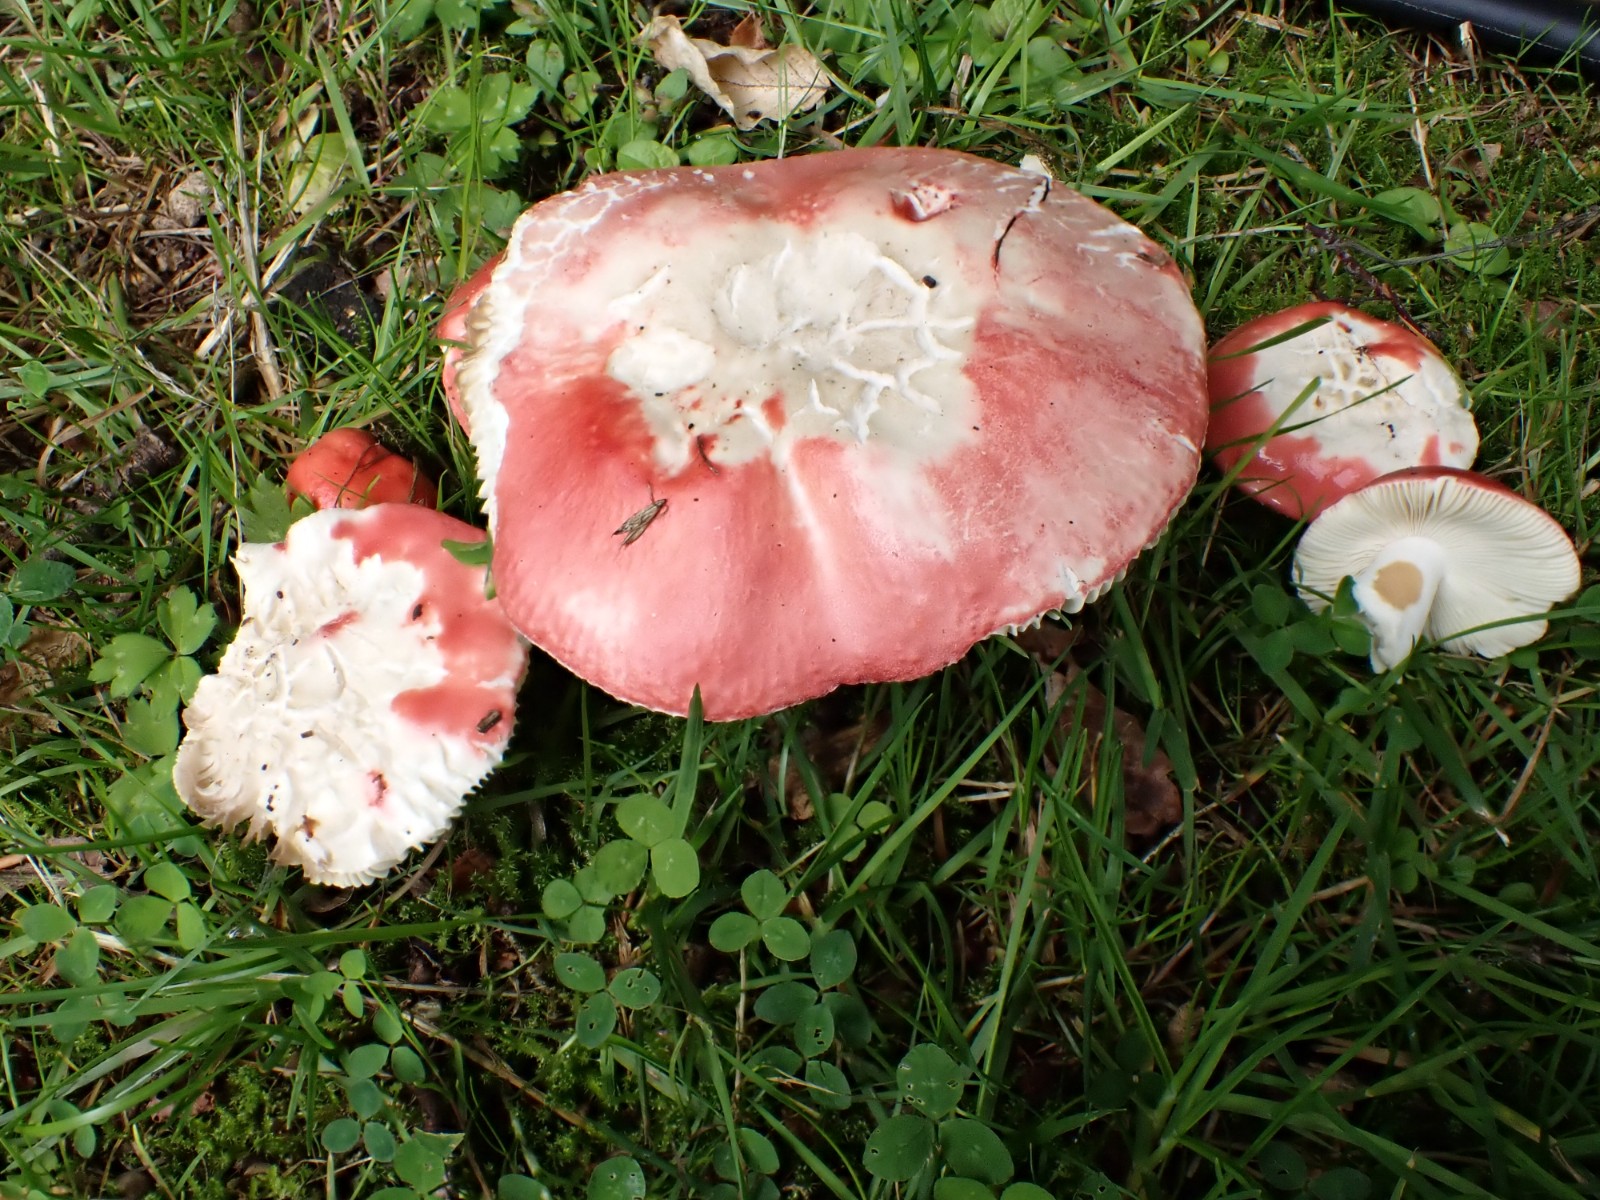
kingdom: Fungi
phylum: Basidiomycota
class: Agaricomycetes
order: Russulales
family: Russulaceae
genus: Russula
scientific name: Russula pseudointegra
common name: cinnoberrød skørhat
